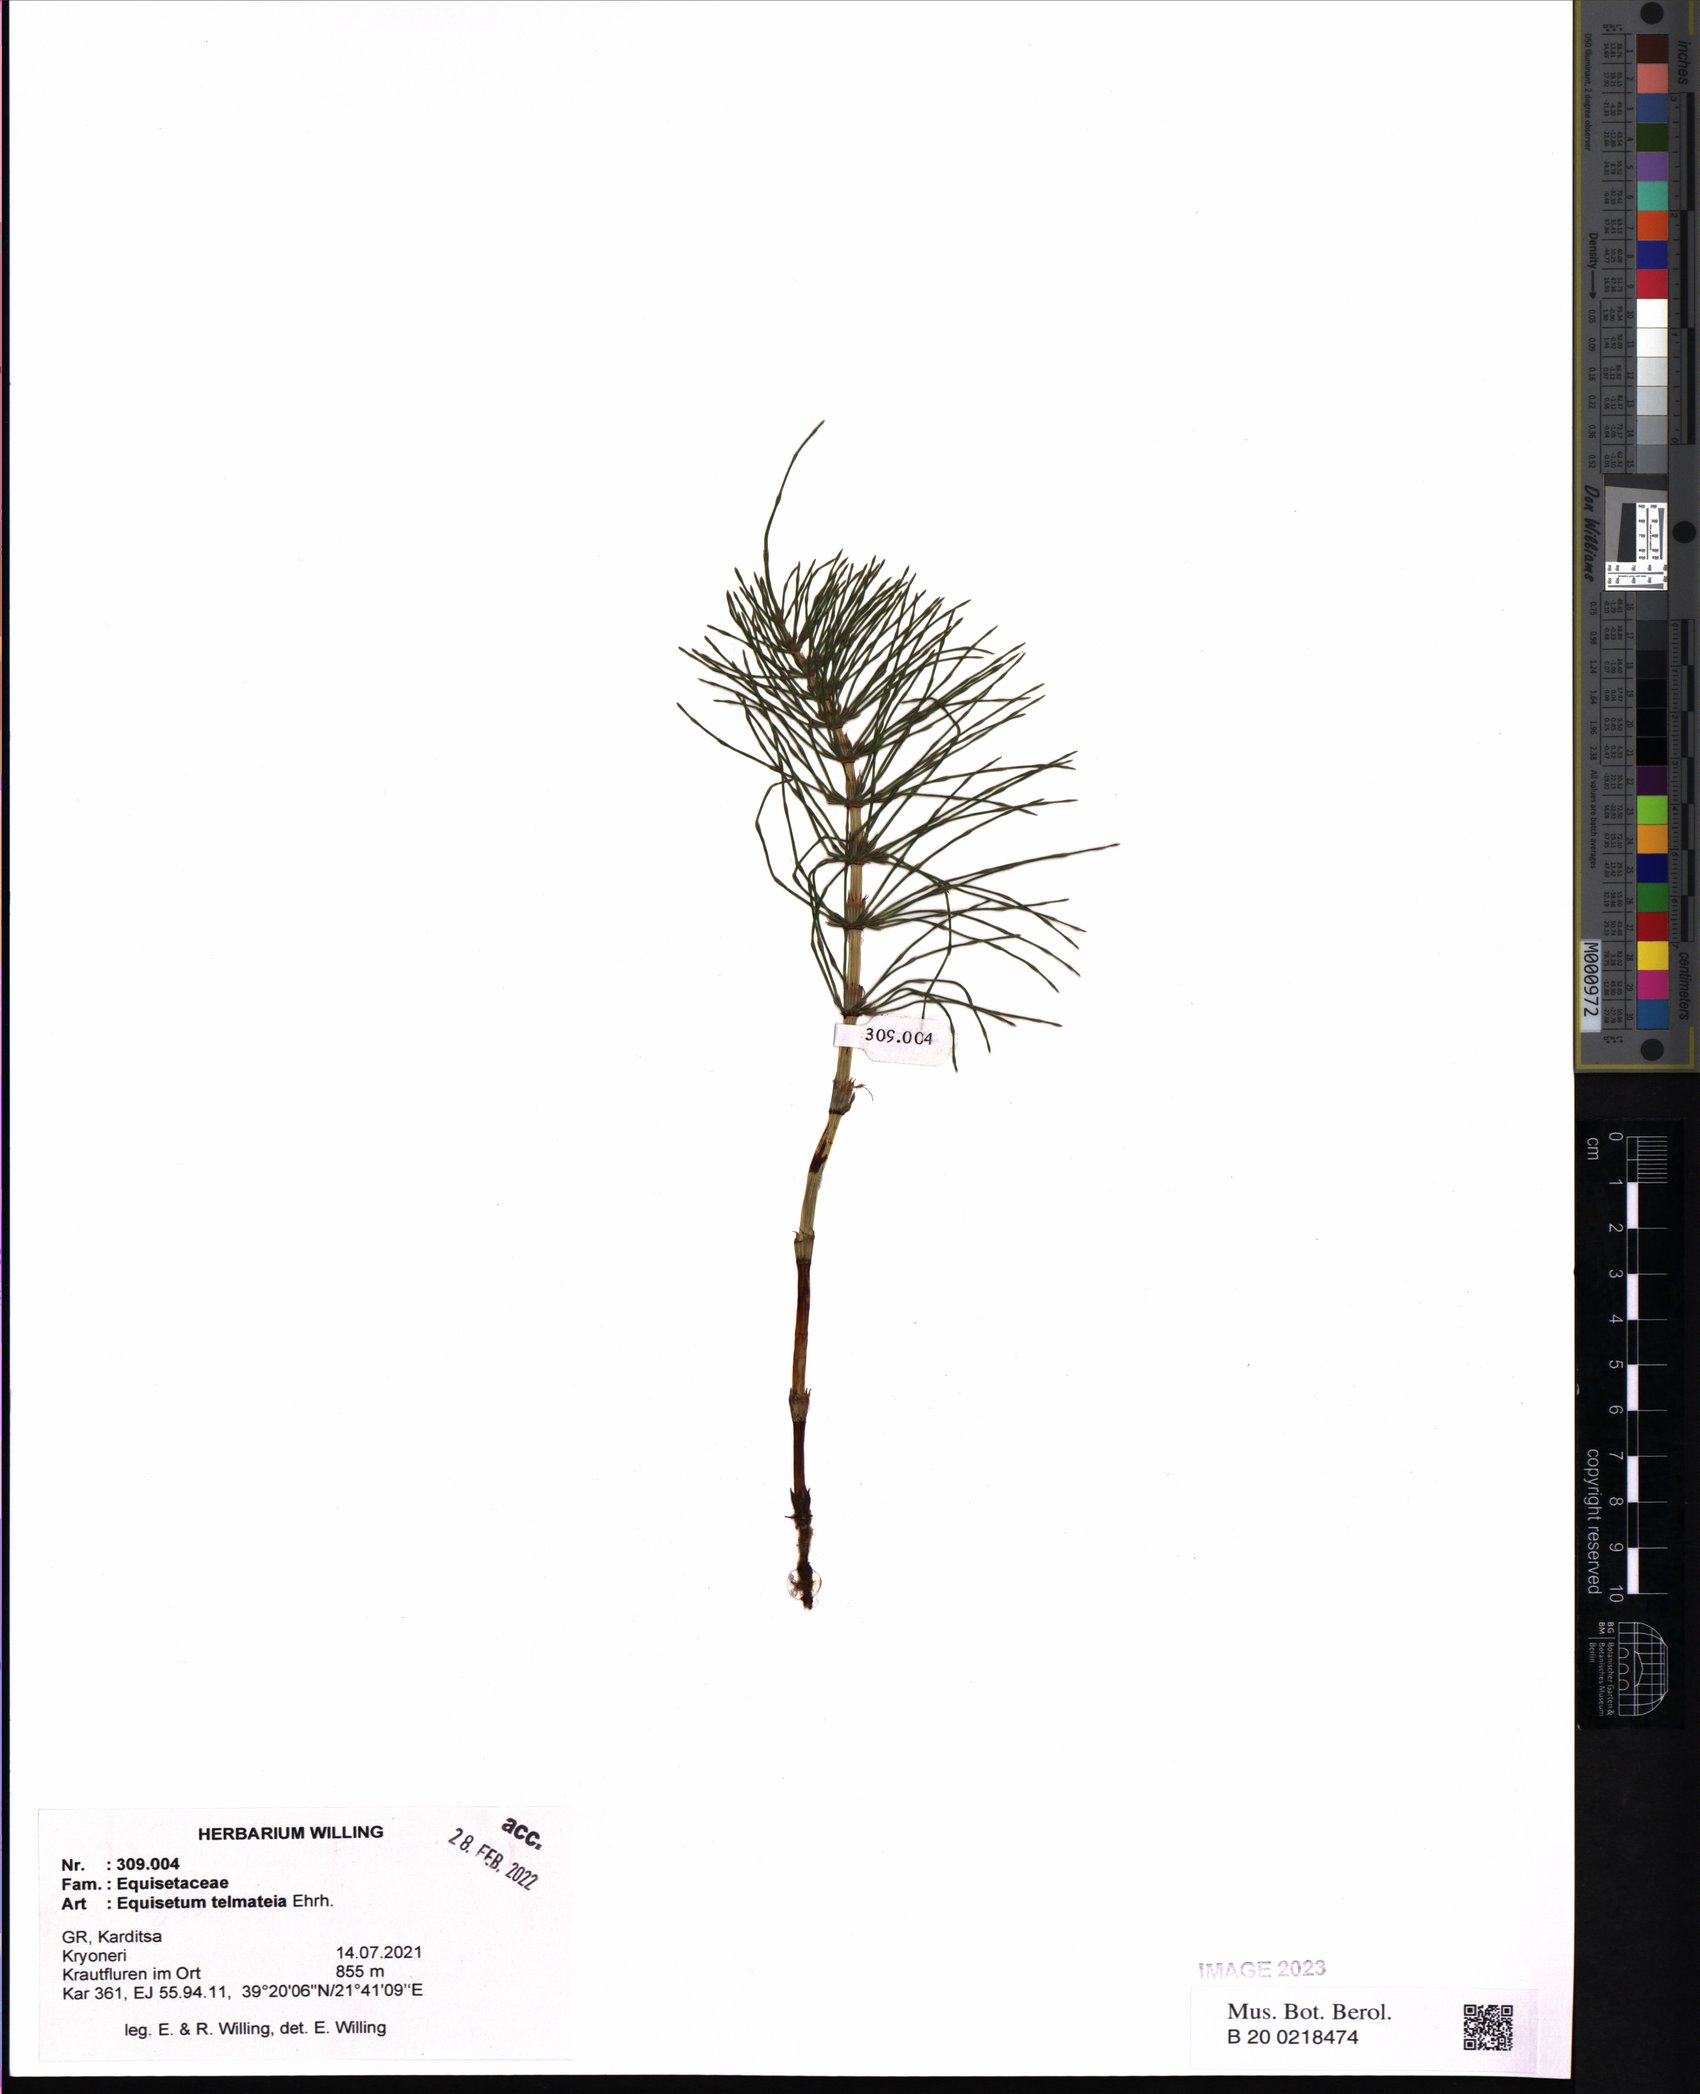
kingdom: Plantae
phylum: Tracheophyta
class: Polypodiopsida
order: Equisetales
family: Equisetaceae
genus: Equisetum
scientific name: Equisetum telmateia
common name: Great horsetail
